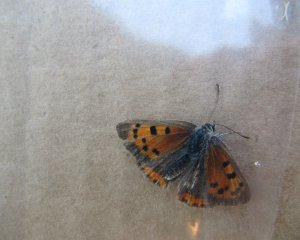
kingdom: Animalia
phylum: Arthropoda
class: Insecta
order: Lepidoptera
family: Lycaenidae
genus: Lycaena
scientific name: Lycaena phlaeas
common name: American Copper
